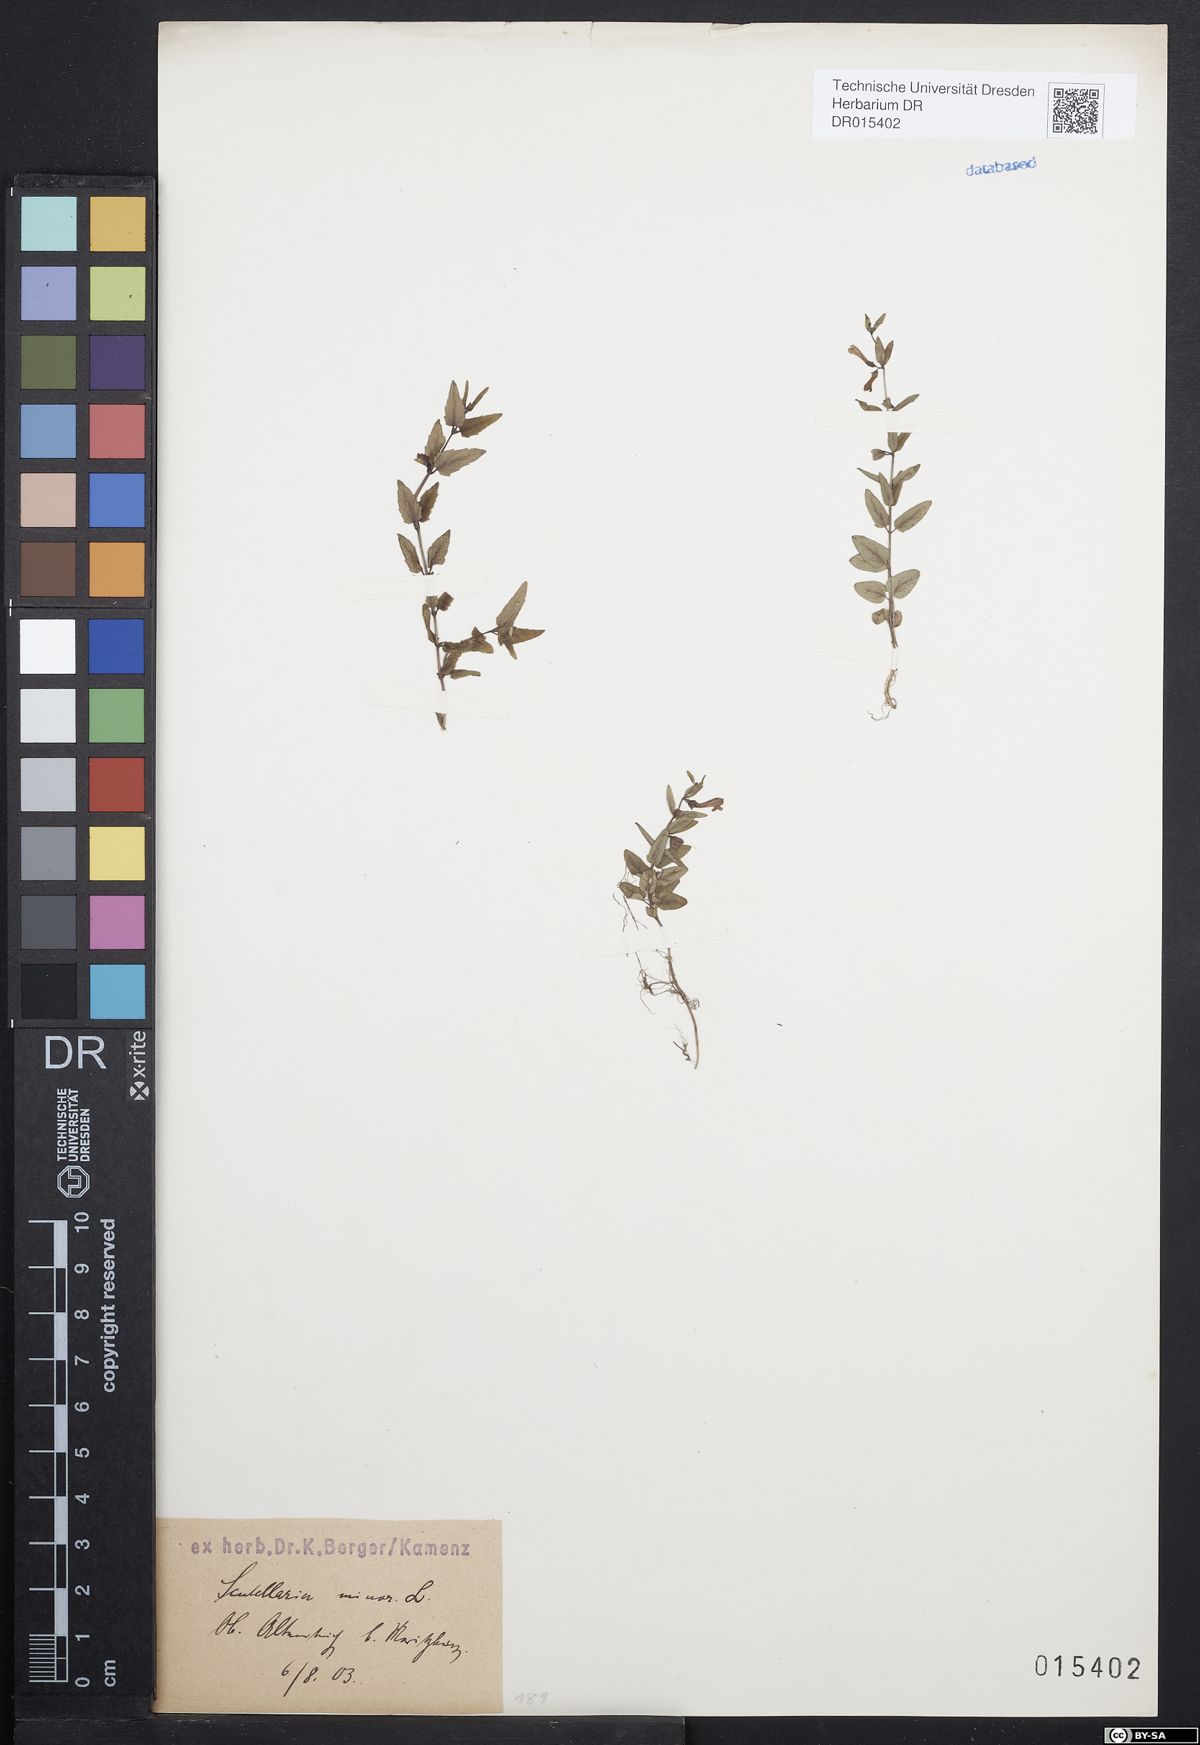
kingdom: Plantae
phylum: Tracheophyta
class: Magnoliopsida
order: Lamiales
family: Lamiaceae
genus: Scutellaria
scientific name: Scutellaria minor
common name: Lesser skullcap
